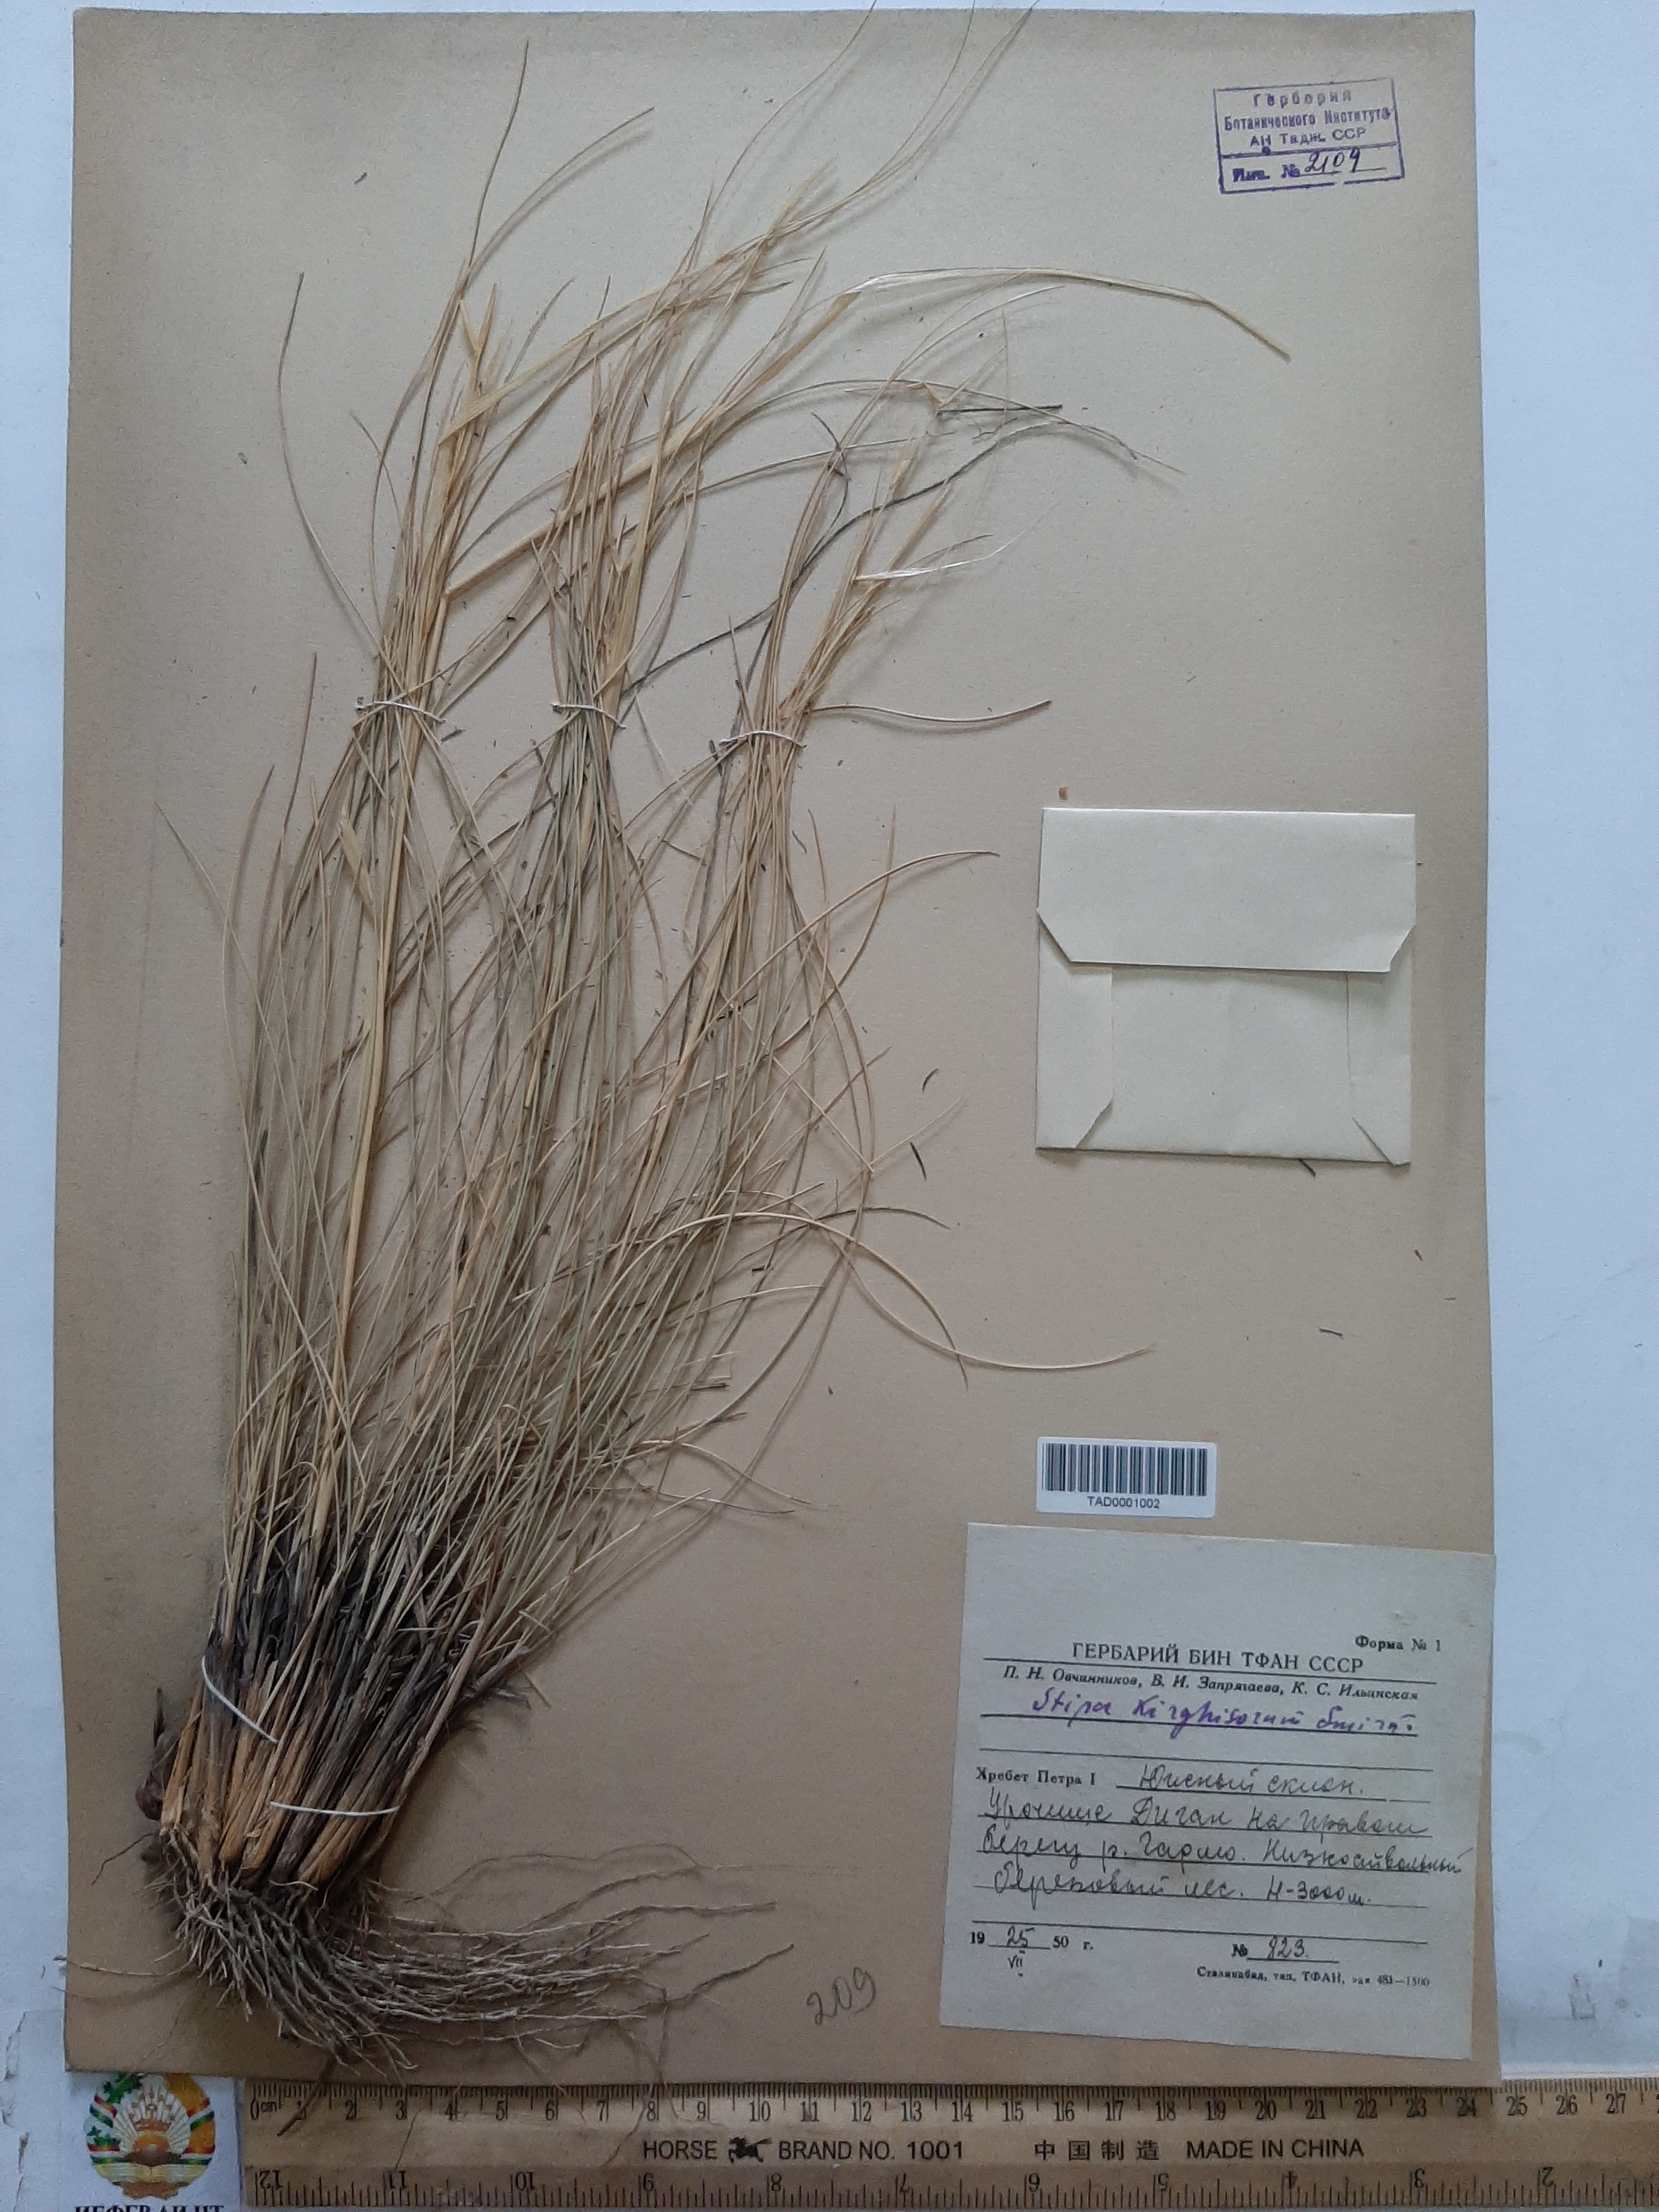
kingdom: Plantae
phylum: Tracheophyta
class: Liliopsida
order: Poales
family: Poaceae
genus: Stipa
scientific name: Stipa kirghisorum
